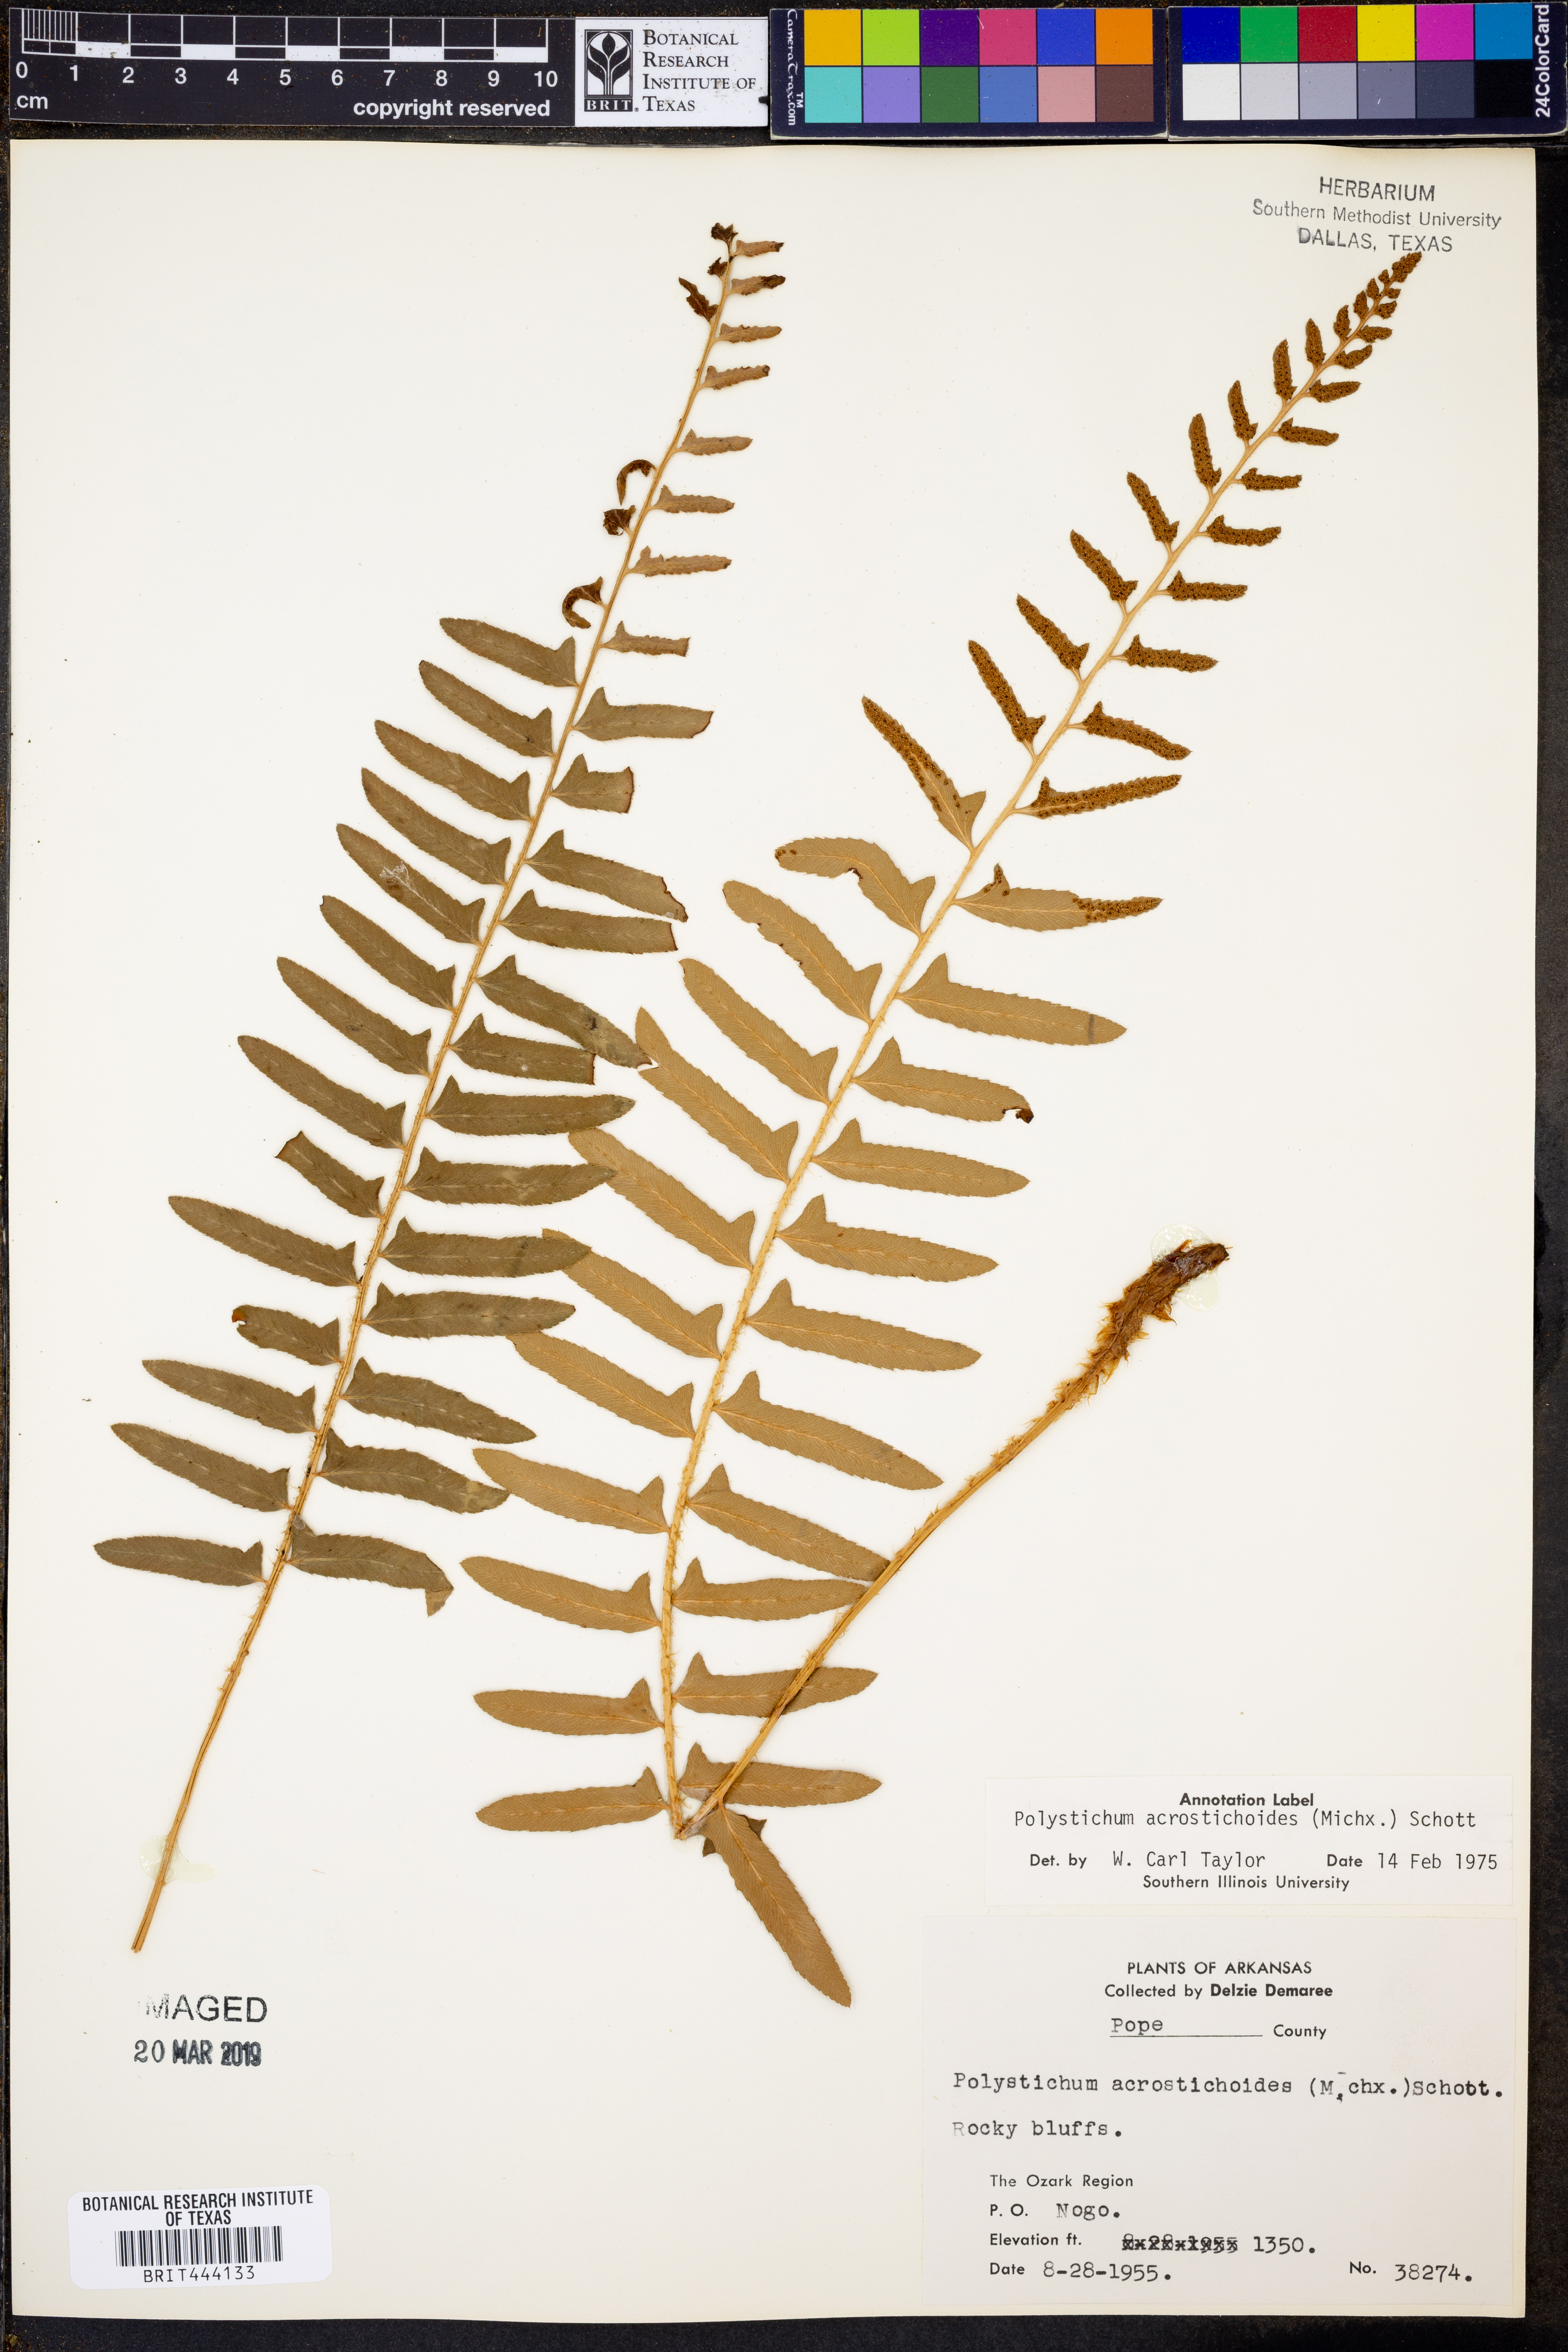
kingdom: Plantae
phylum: Tracheophyta
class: Polypodiopsida
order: Polypodiales
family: Dryopteridaceae
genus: Polystichum
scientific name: Polystichum acrostichoides
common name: Christmas fern
